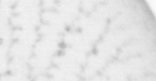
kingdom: Animalia
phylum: Chordata
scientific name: Chordata
